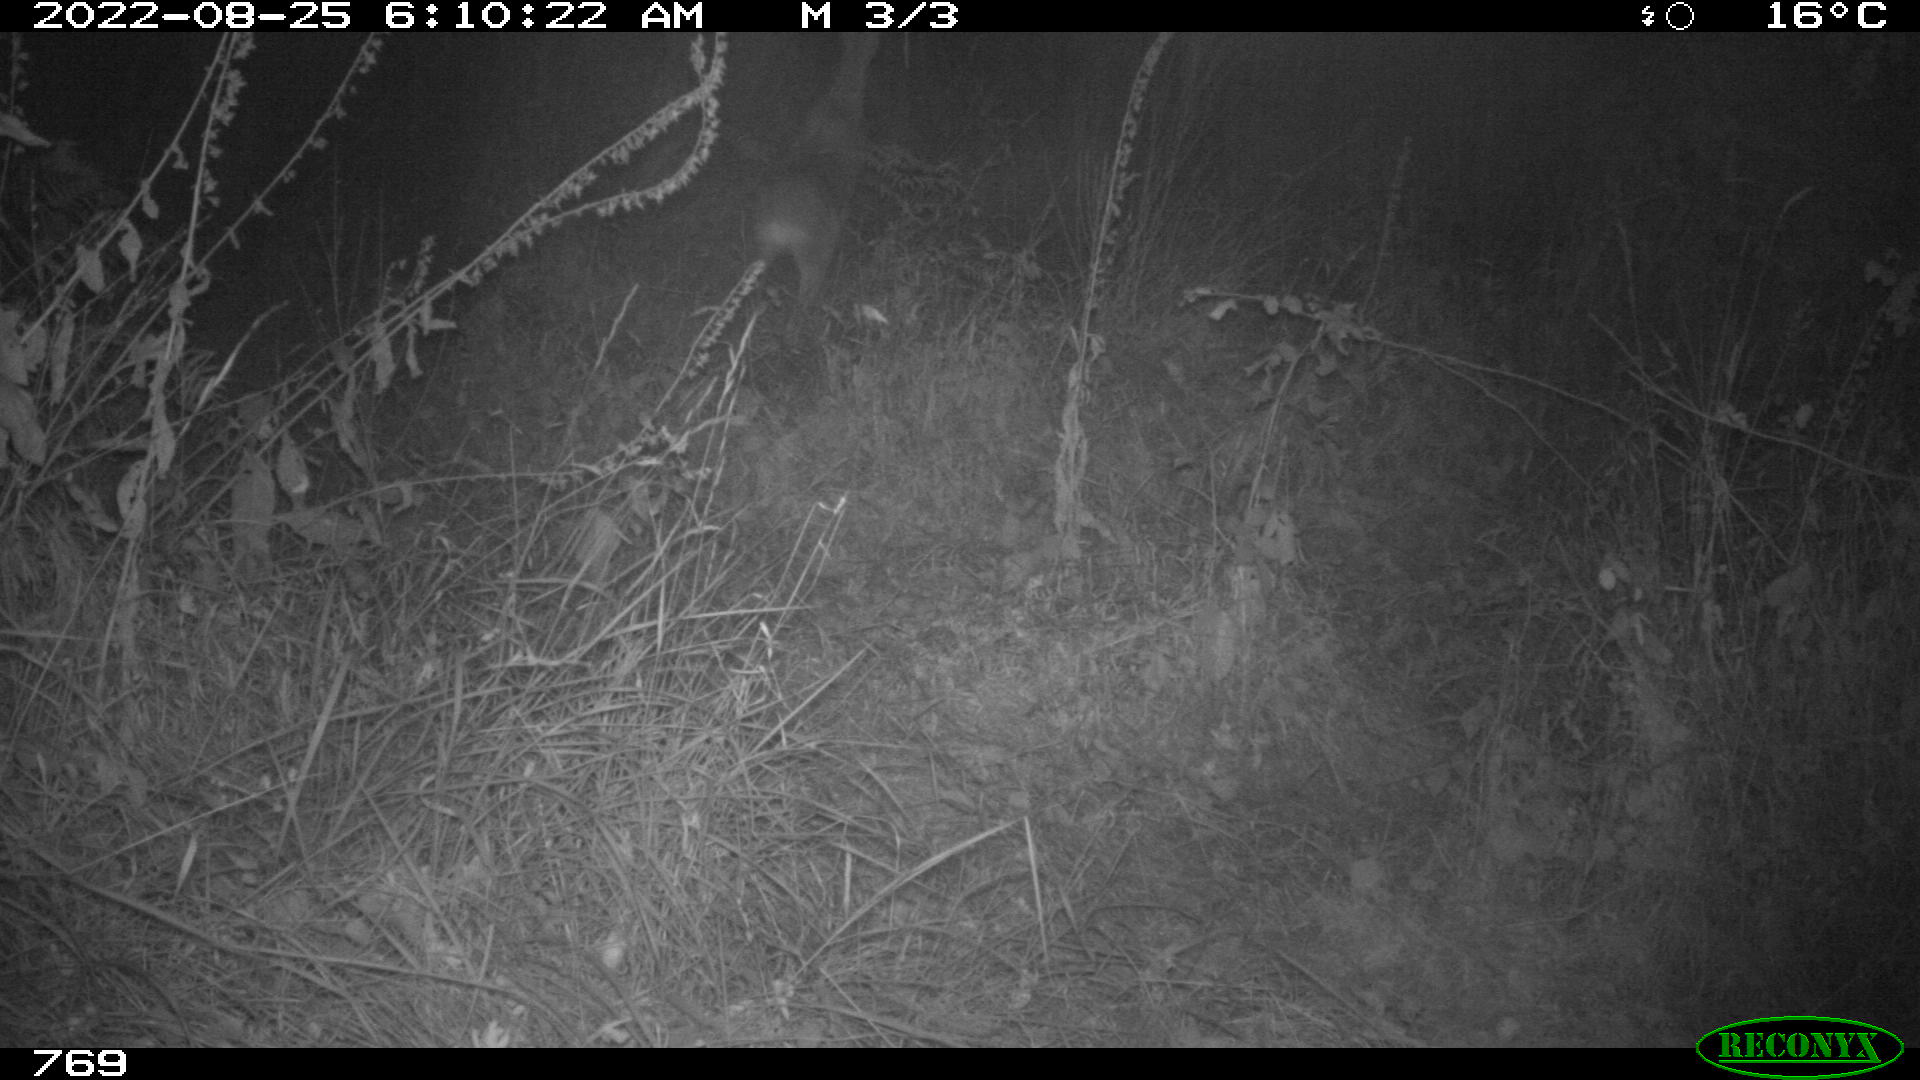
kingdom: Animalia
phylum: Chordata
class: Mammalia
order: Artiodactyla
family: Cervidae
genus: Capreolus
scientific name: Capreolus capreolus
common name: Western roe deer
